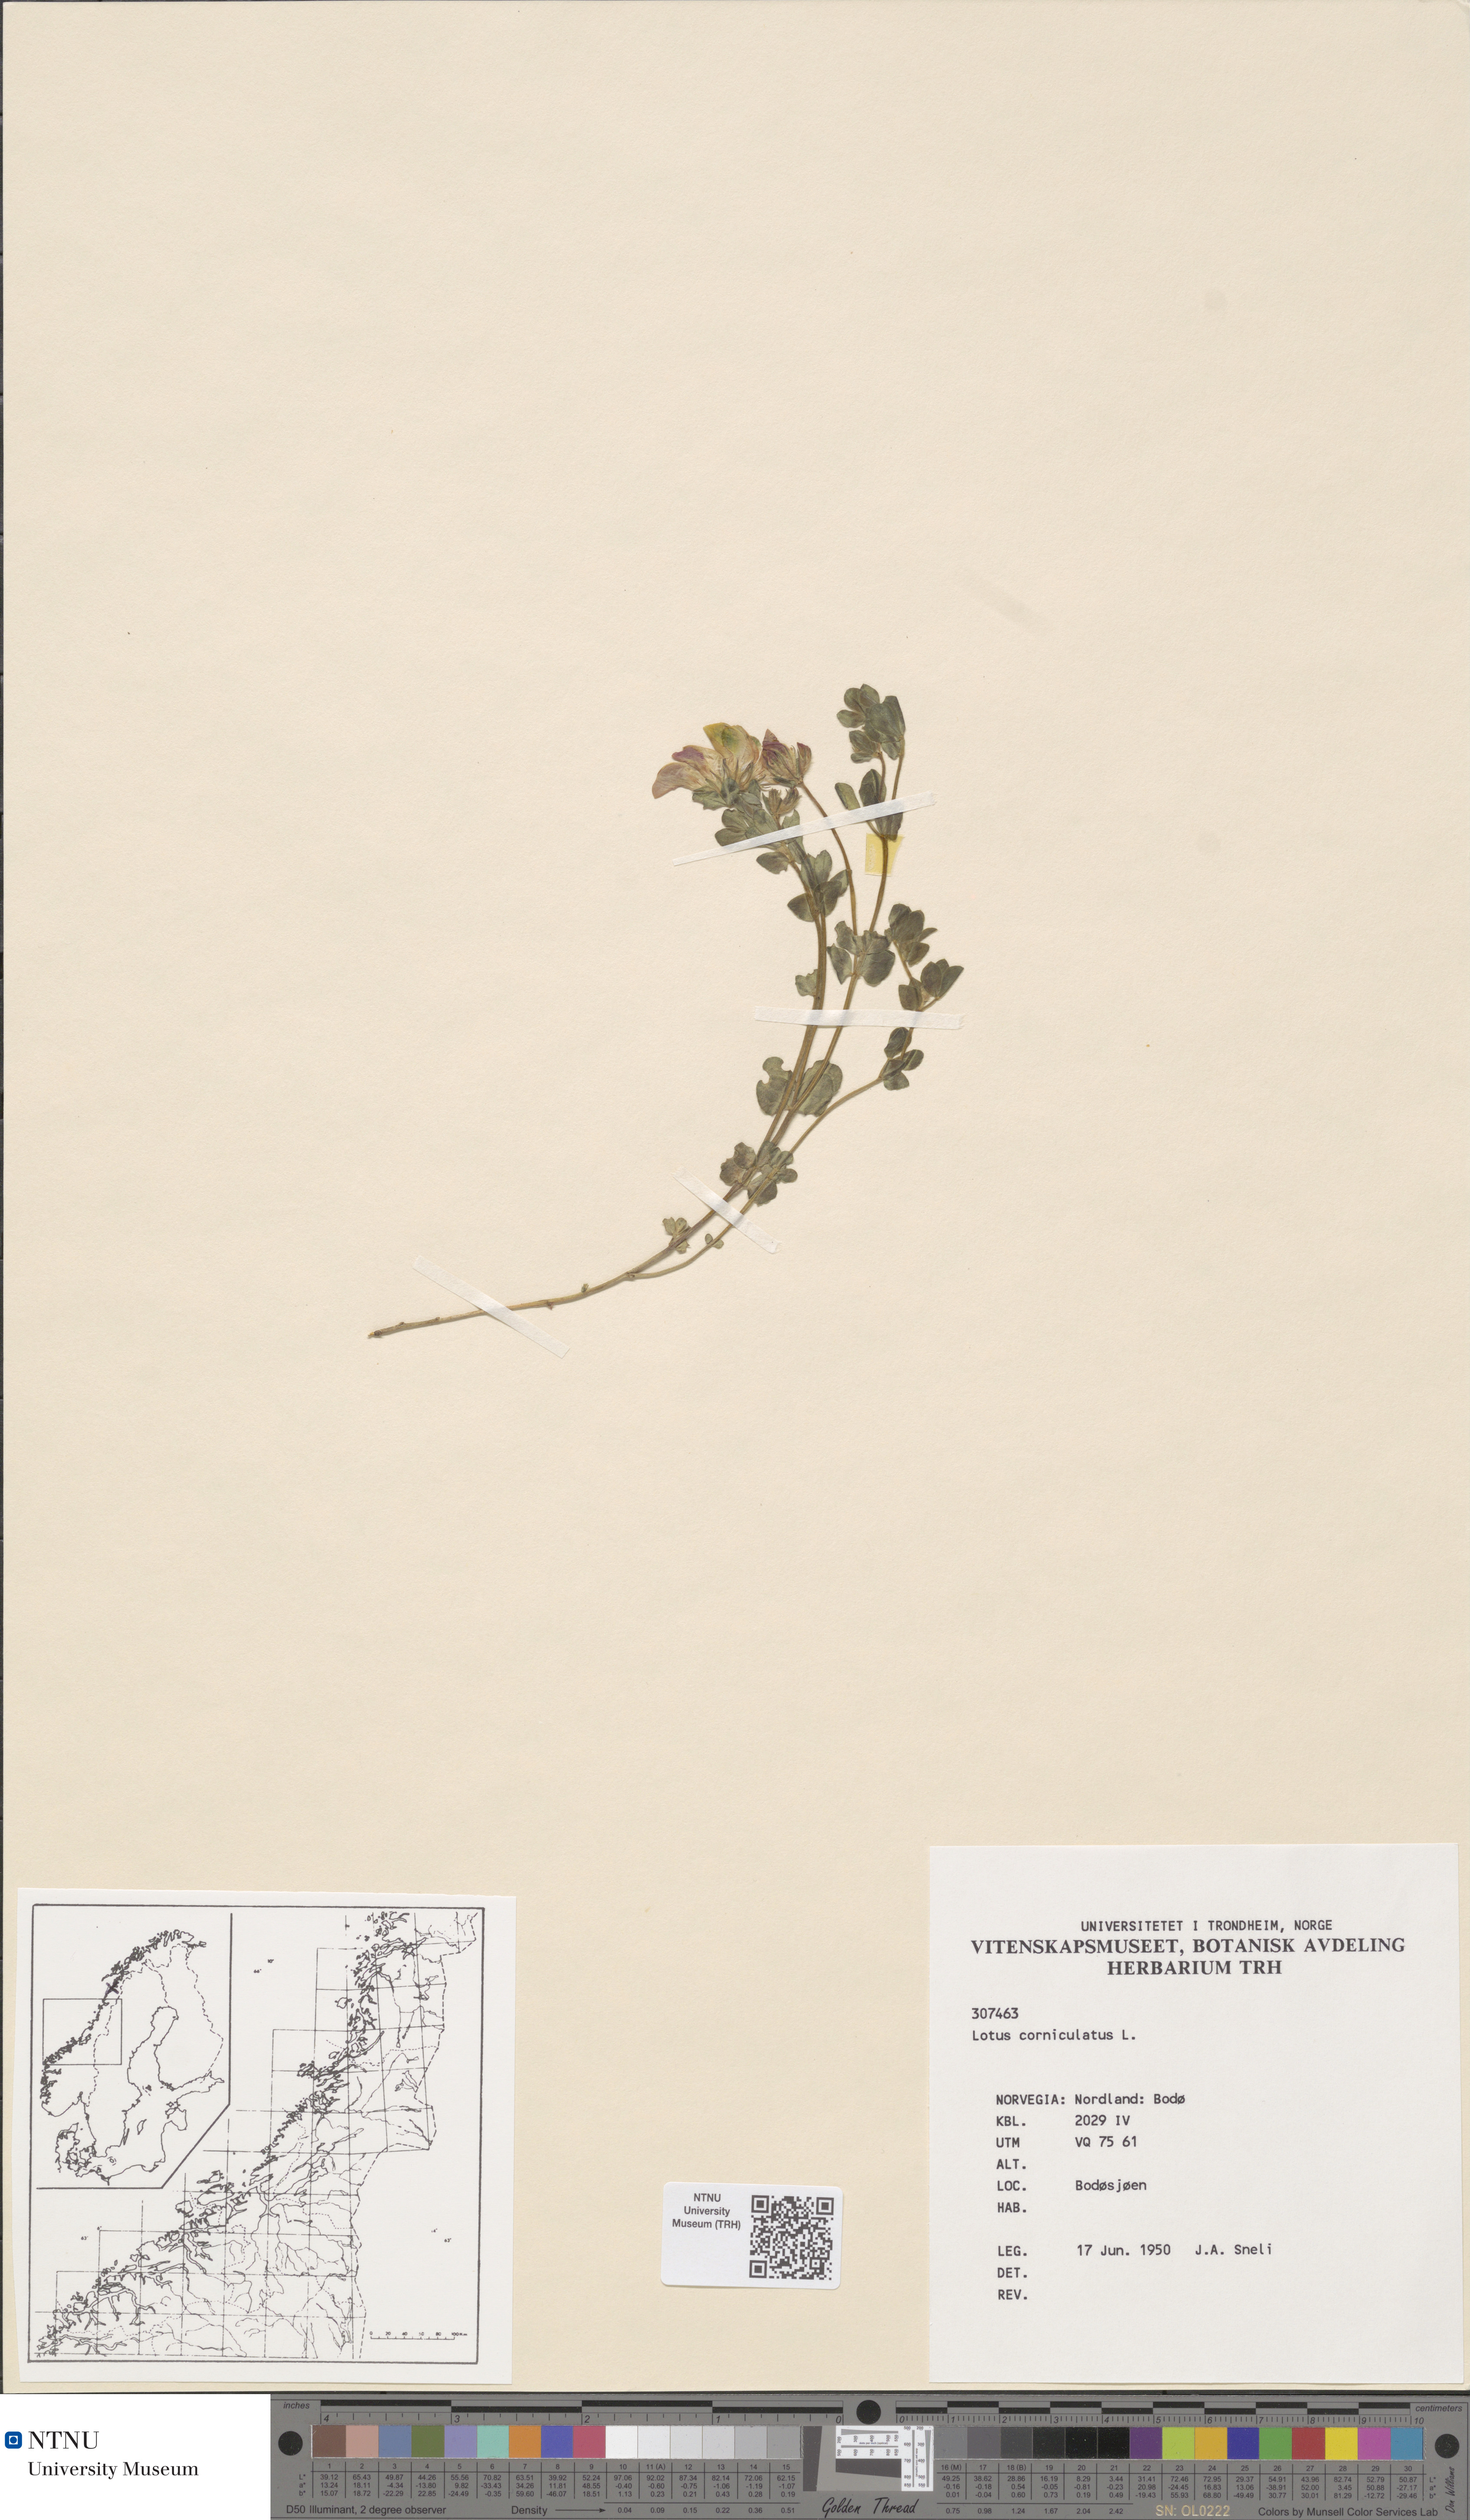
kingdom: Plantae
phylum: Tracheophyta
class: Magnoliopsida
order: Fabales
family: Fabaceae
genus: Lotus
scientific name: Lotus corniculatus
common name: Common bird's-foot-trefoil
